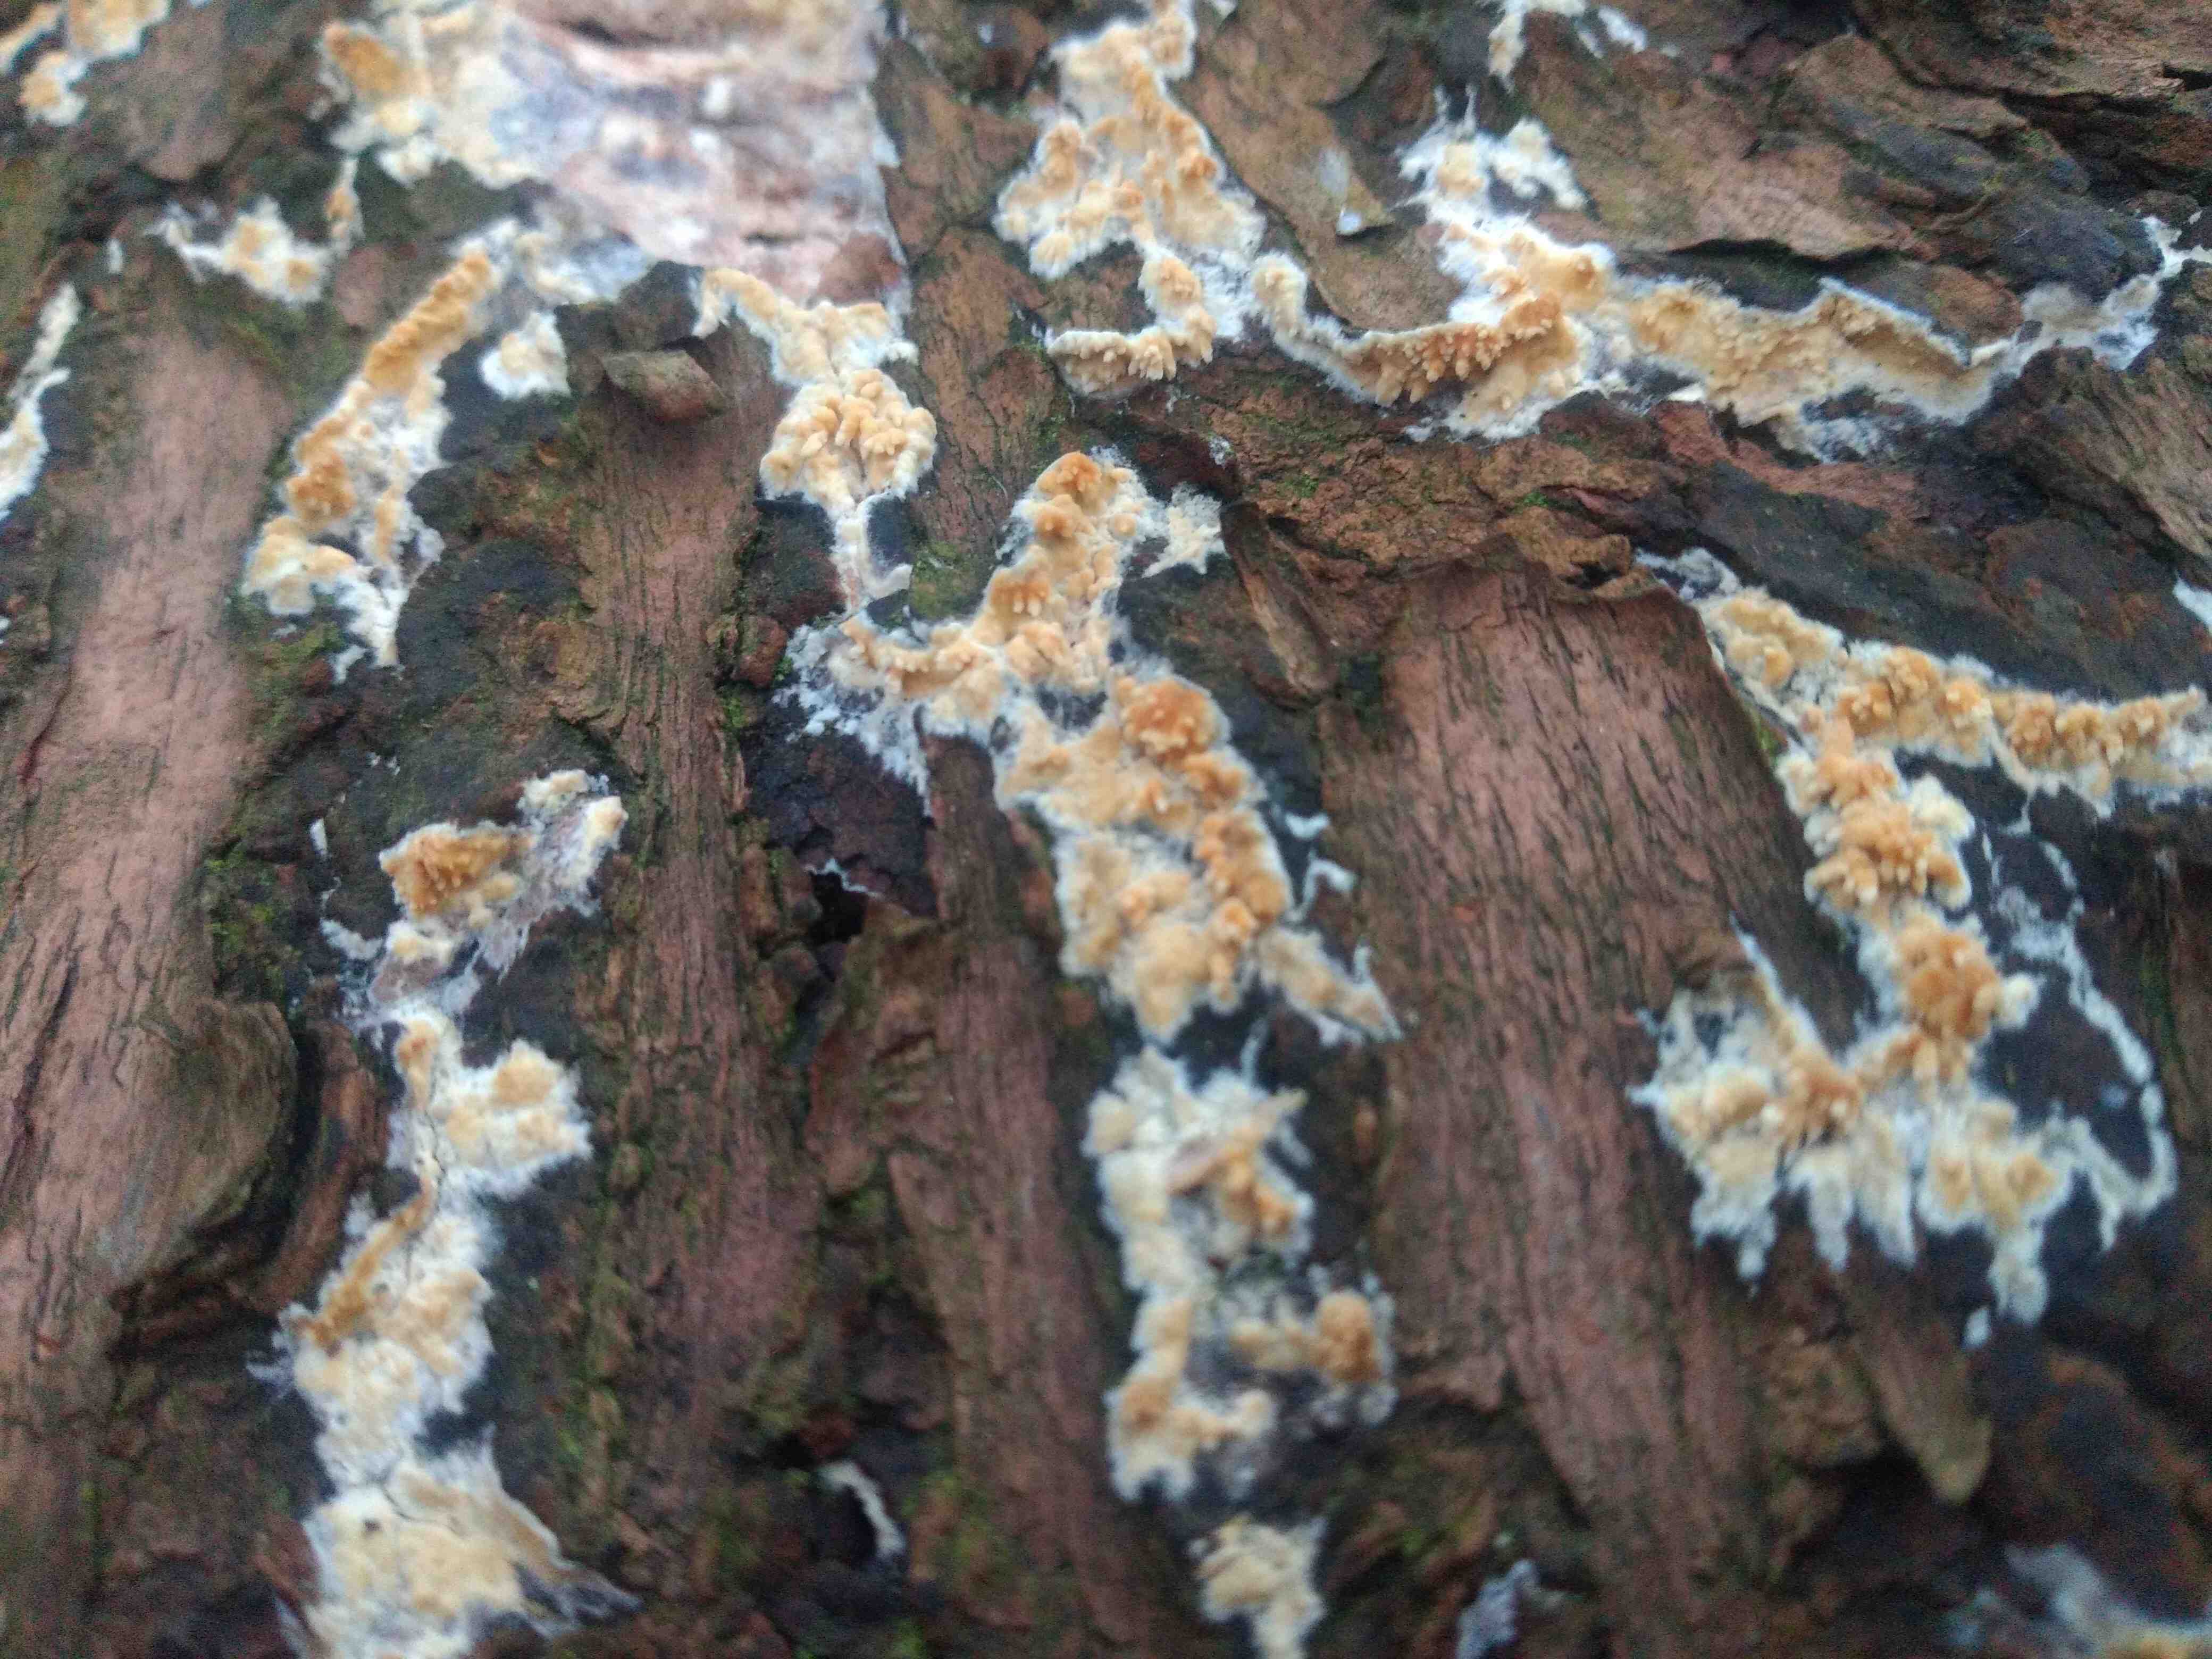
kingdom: Fungi
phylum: Basidiomycota
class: Agaricomycetes
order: Corticiales
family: Corticiaceae
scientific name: Corticiaceae
